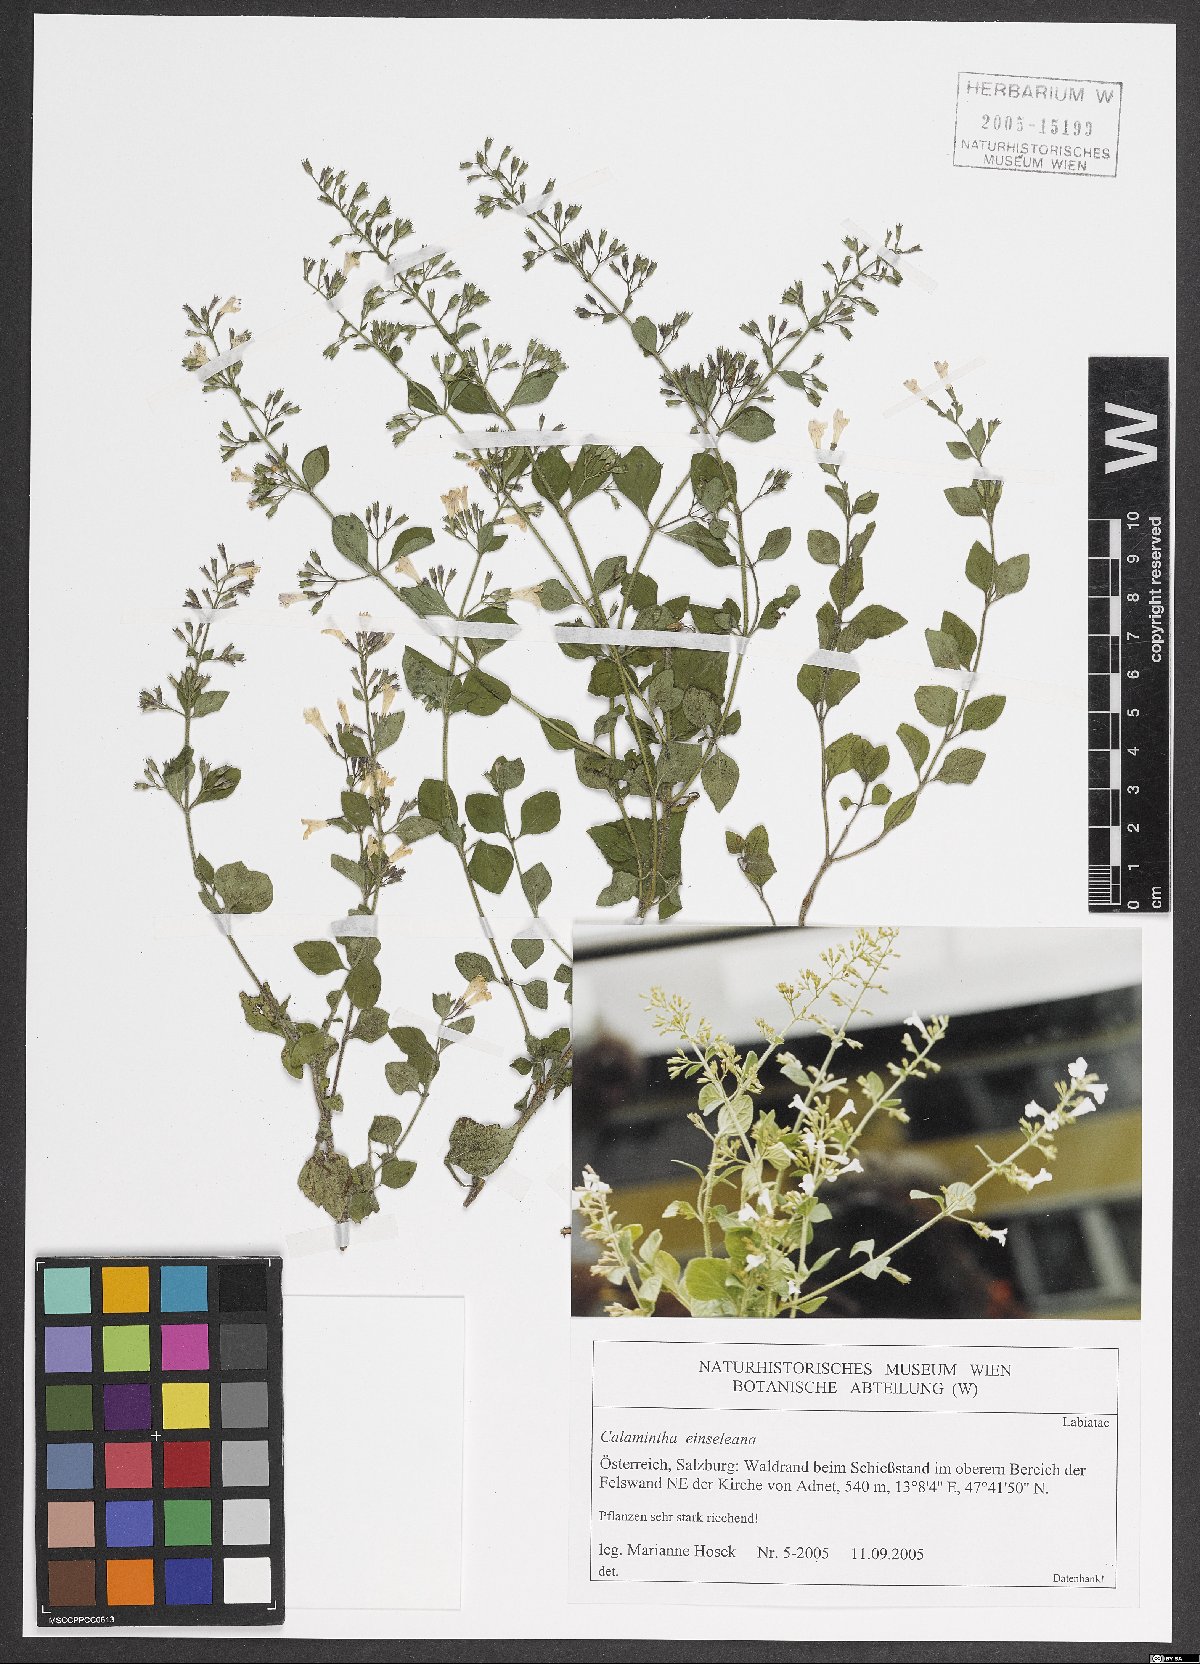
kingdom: Plantae
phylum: Tracheophyta
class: Magnoliopsida
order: Lamiales
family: Lamiaceae
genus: Clinopodium
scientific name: Clinopodium nepeta
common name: Lesser calamint
